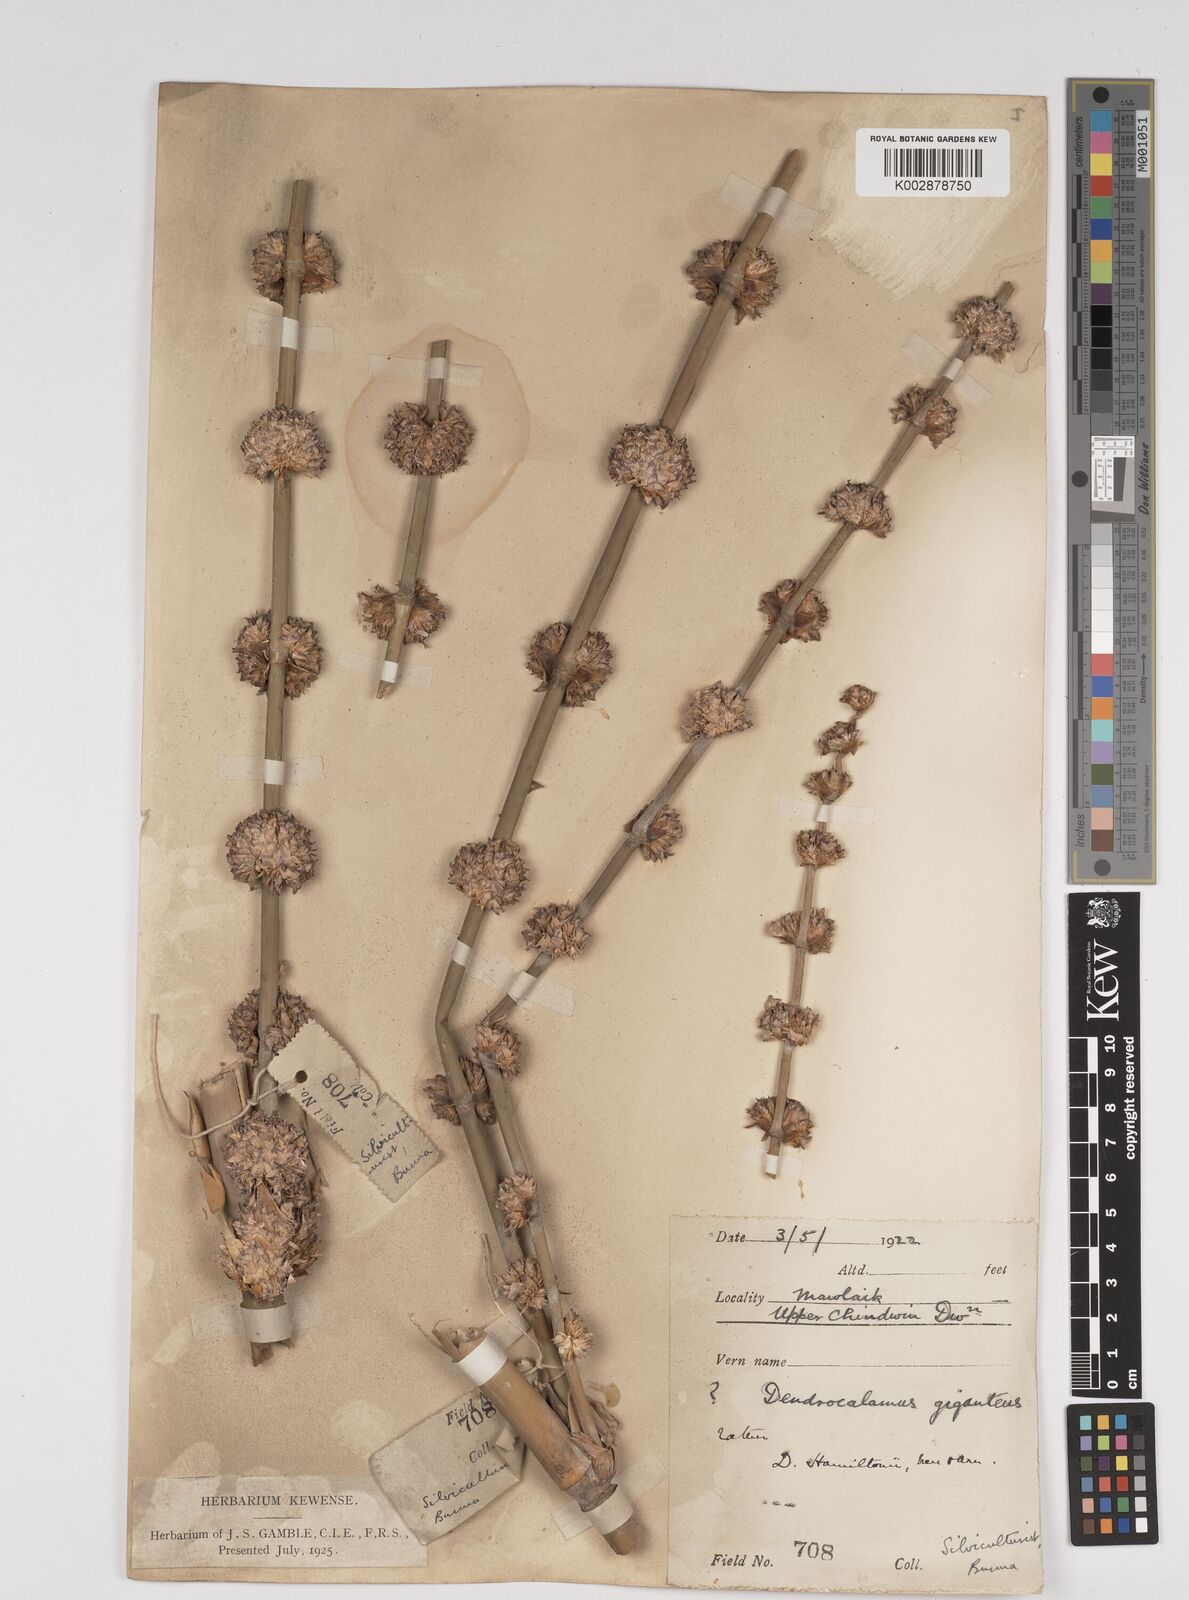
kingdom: Plantae
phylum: Tracheophyta
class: Liliopsida
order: Poales
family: Poaceae
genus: Dendrocalamus
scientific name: Dendrocalamus hamiltonii
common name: Tama bamboo
